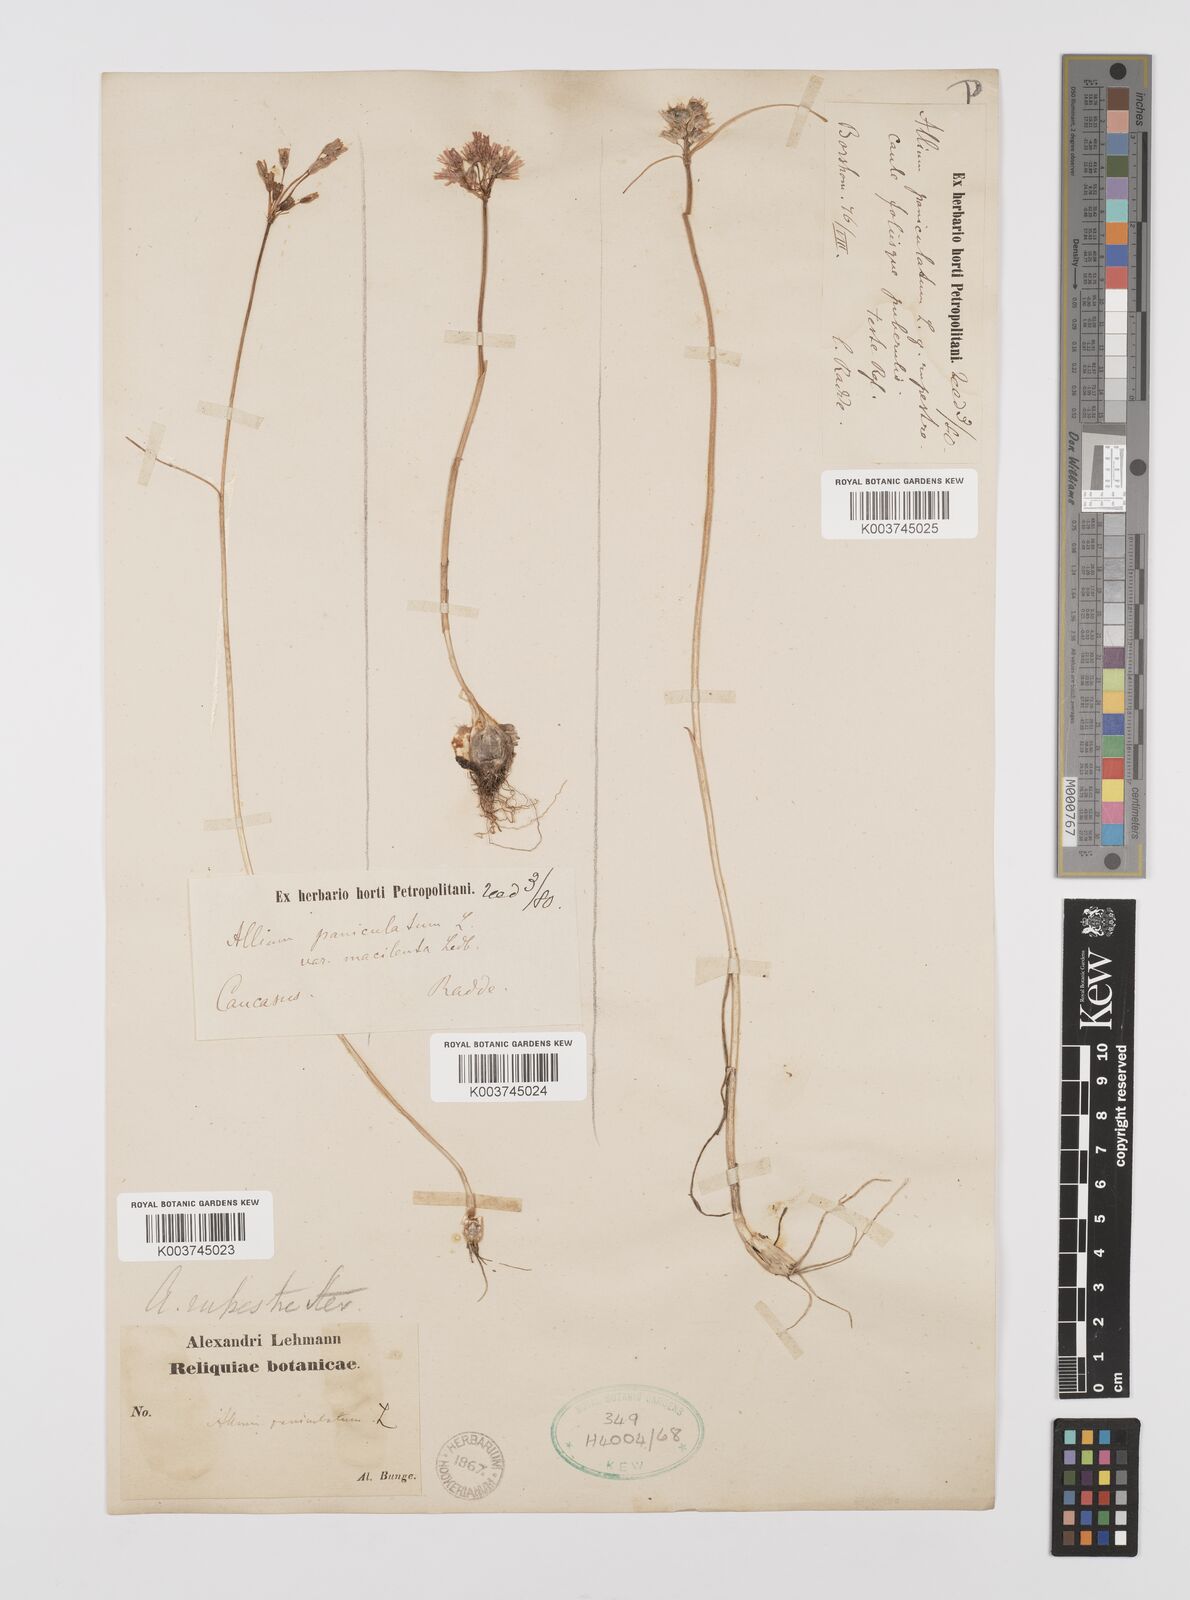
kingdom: Plantae
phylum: Tracheophyta
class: Liliopsida
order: Asparagales
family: Amaryllidaceae
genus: Allium
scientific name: Allium rupestre
